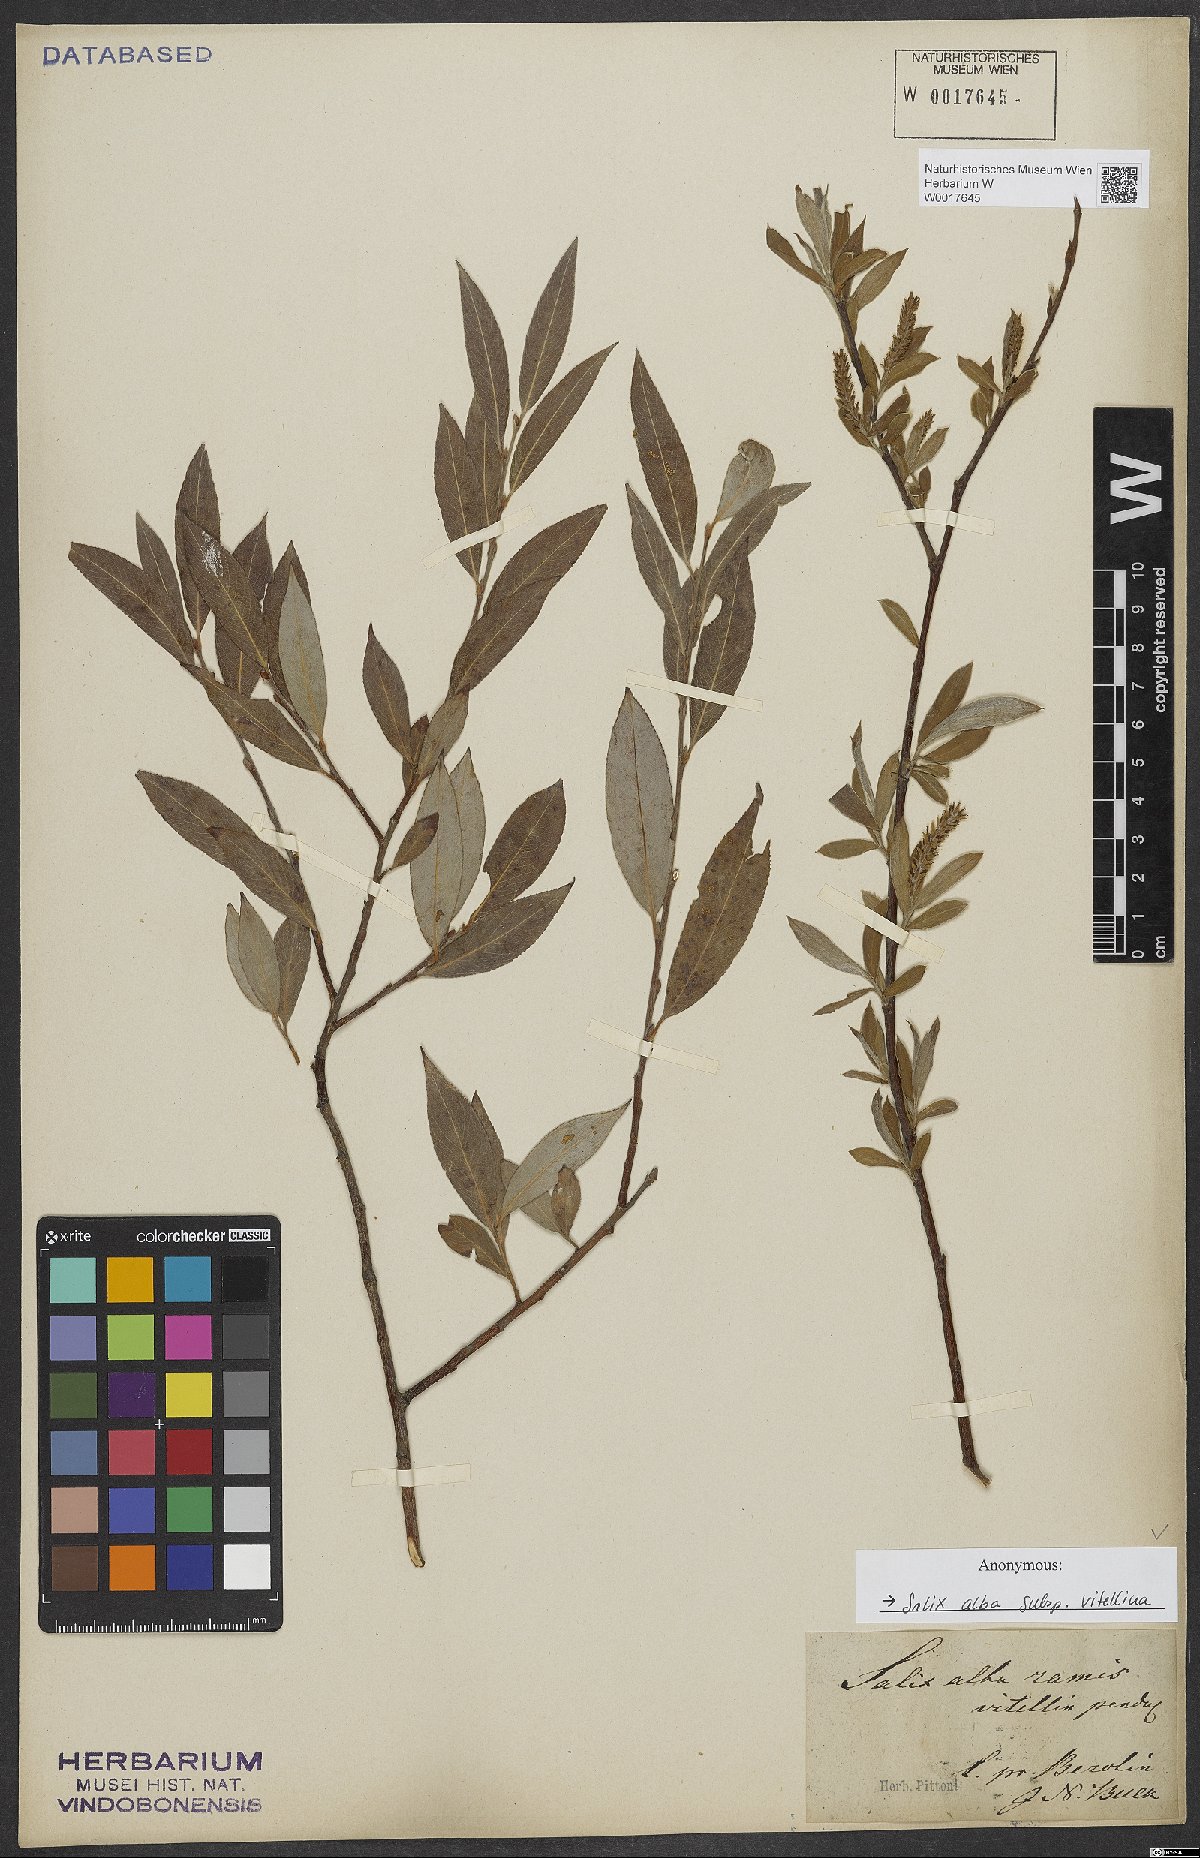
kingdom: Plantae
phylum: Tracheophyta
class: Magnoliopsida
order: Malpighiales
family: Salicaceae
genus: Salix
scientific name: Salix alba
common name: White willow
